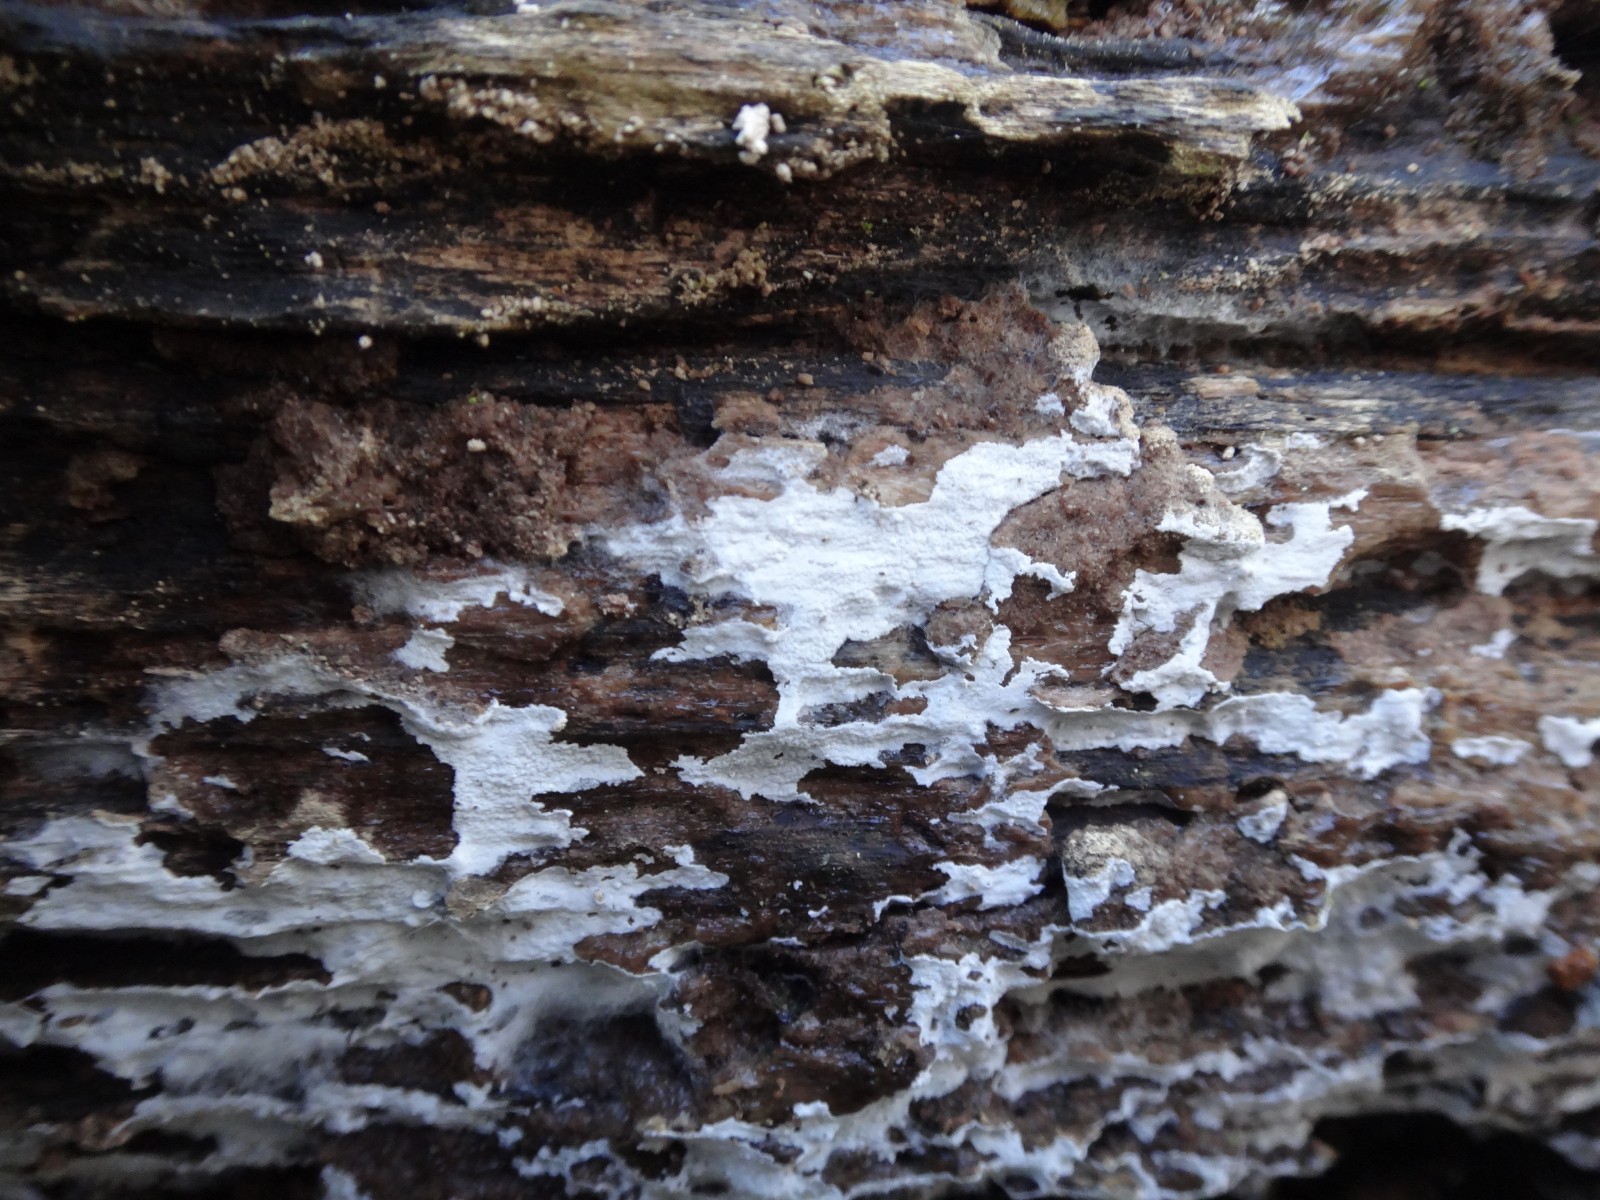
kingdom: Fungi
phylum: Basidiomycota
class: Agaricomycetes
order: Atheliales
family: Atheliaceae
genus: Athelia
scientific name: Athelia epiphylla
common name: almindelig barkhinde
